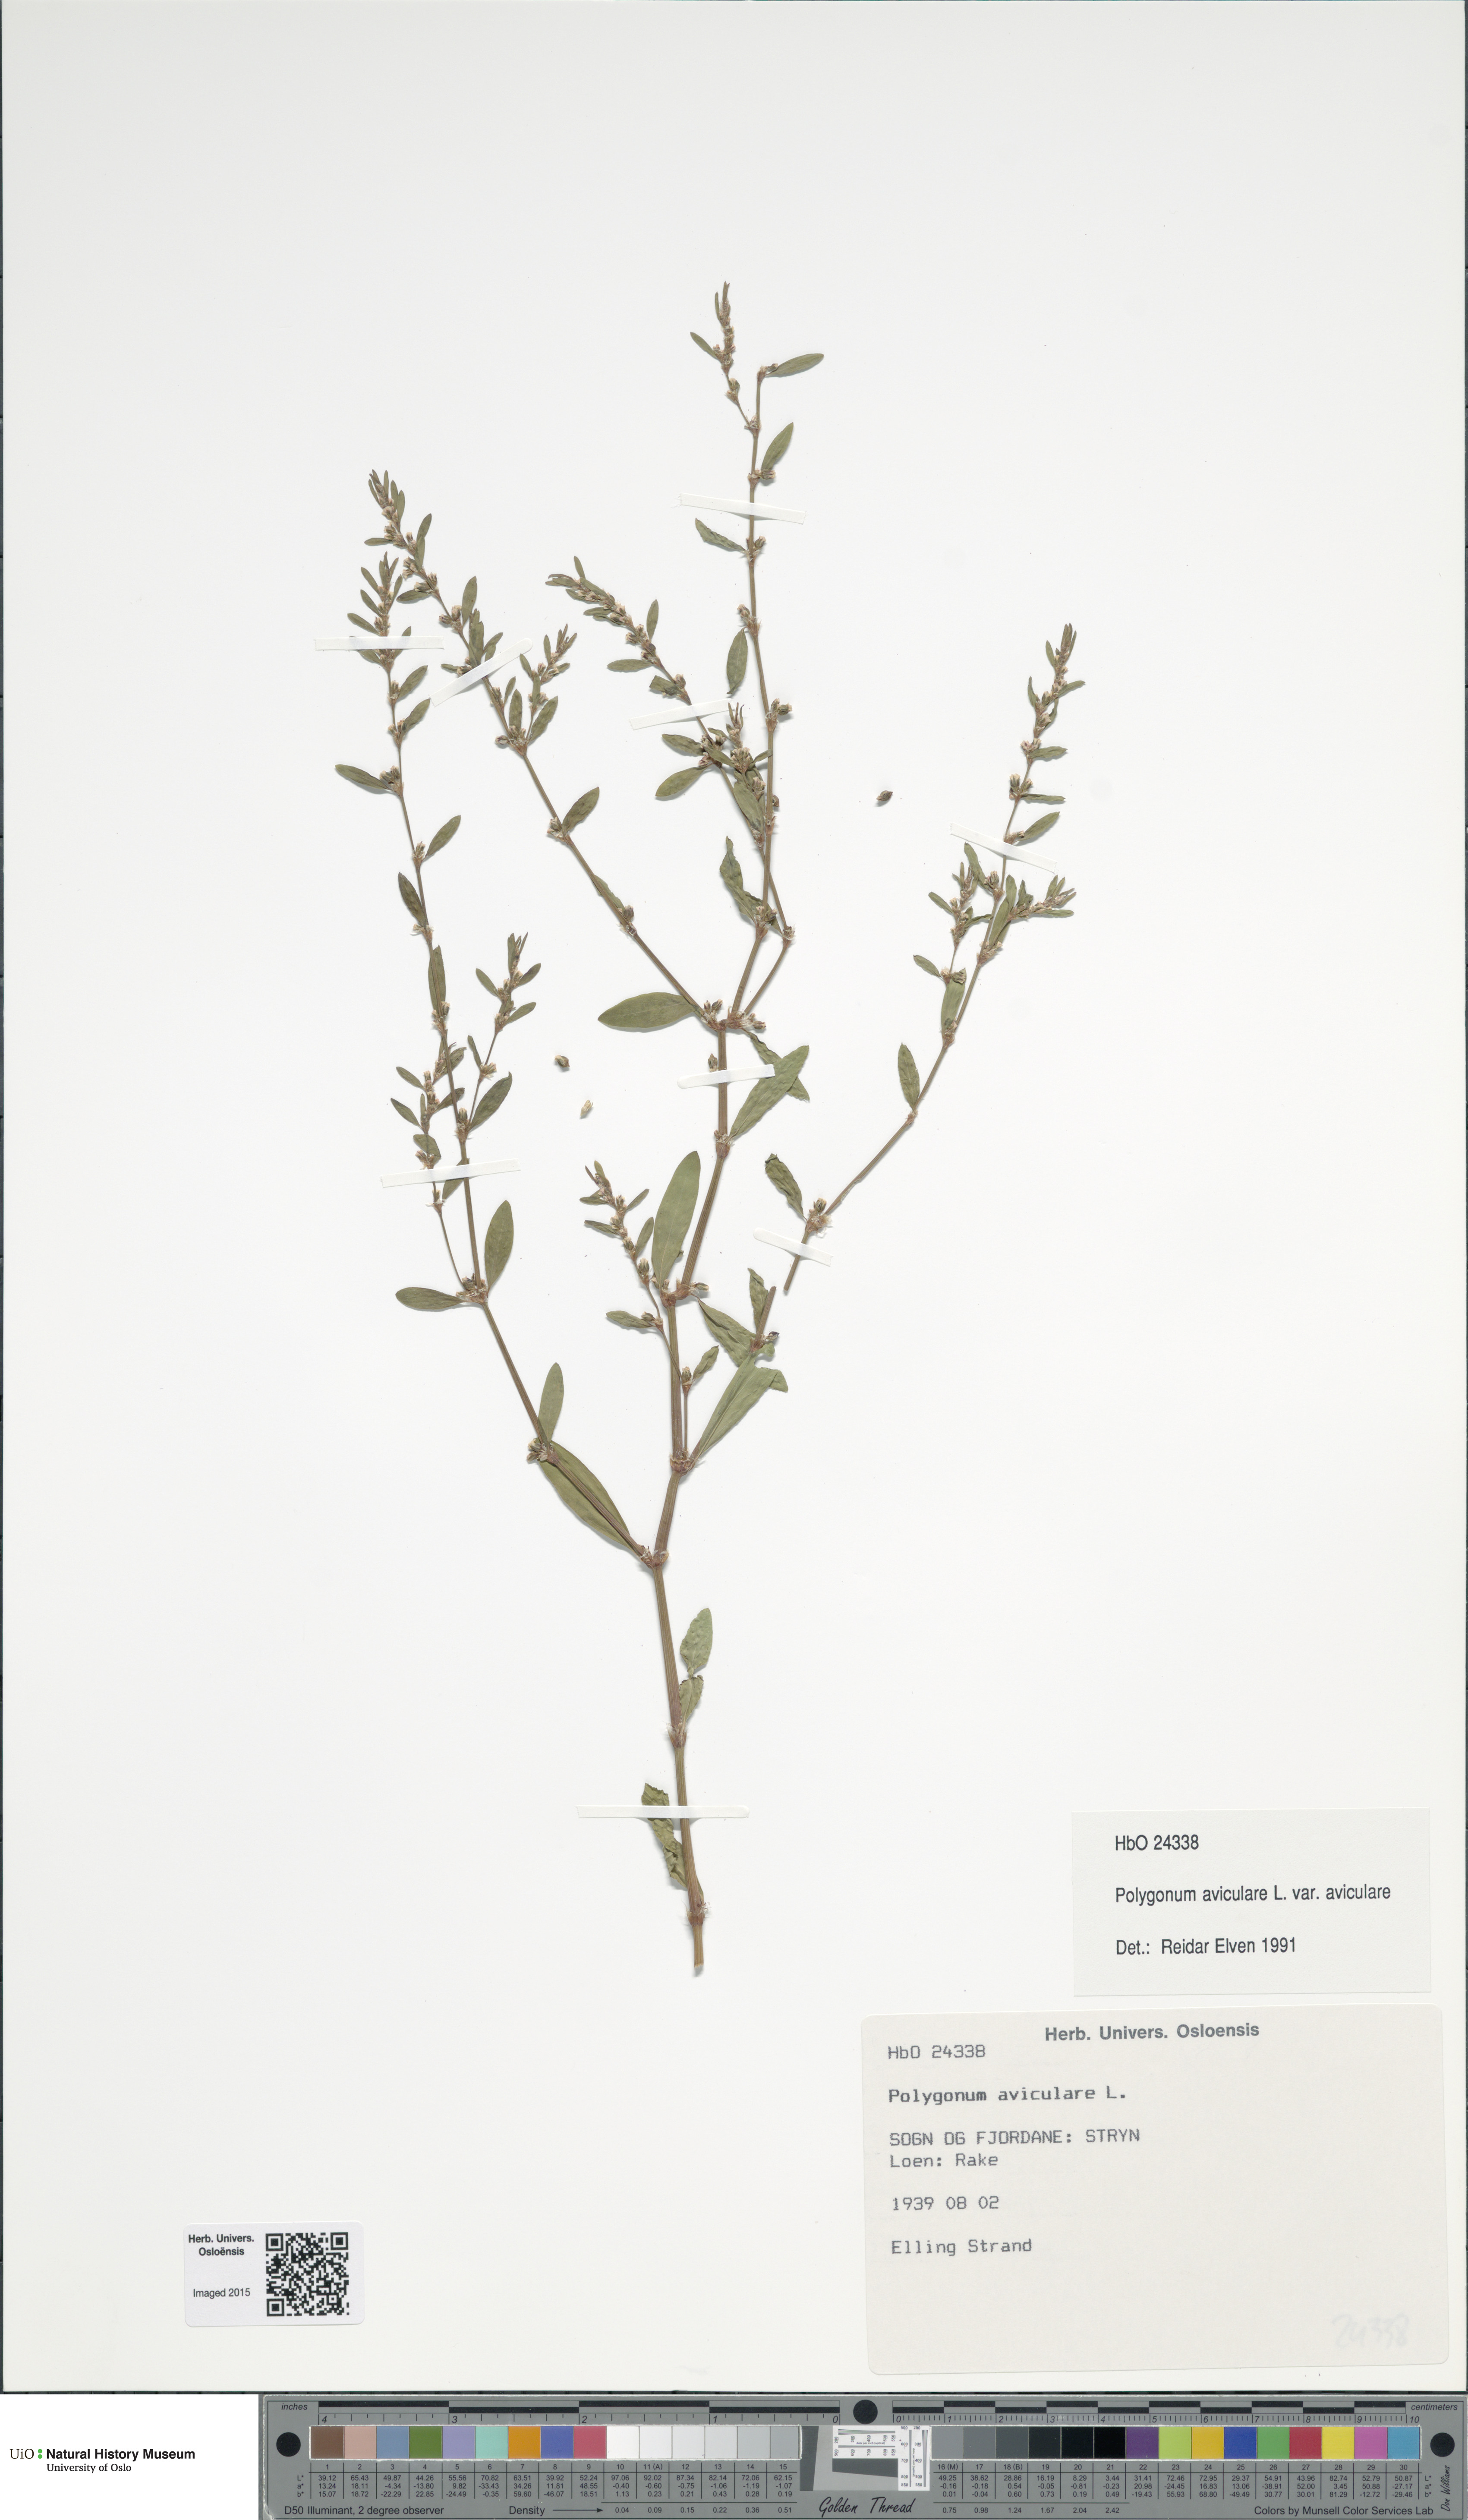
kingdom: Plantae
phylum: Tracheophyta
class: Magnoliopsida
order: Caryophyllales
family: Polygonaceae
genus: Polygonum
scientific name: Polygonum aviculare
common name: Prostrate knotweed
